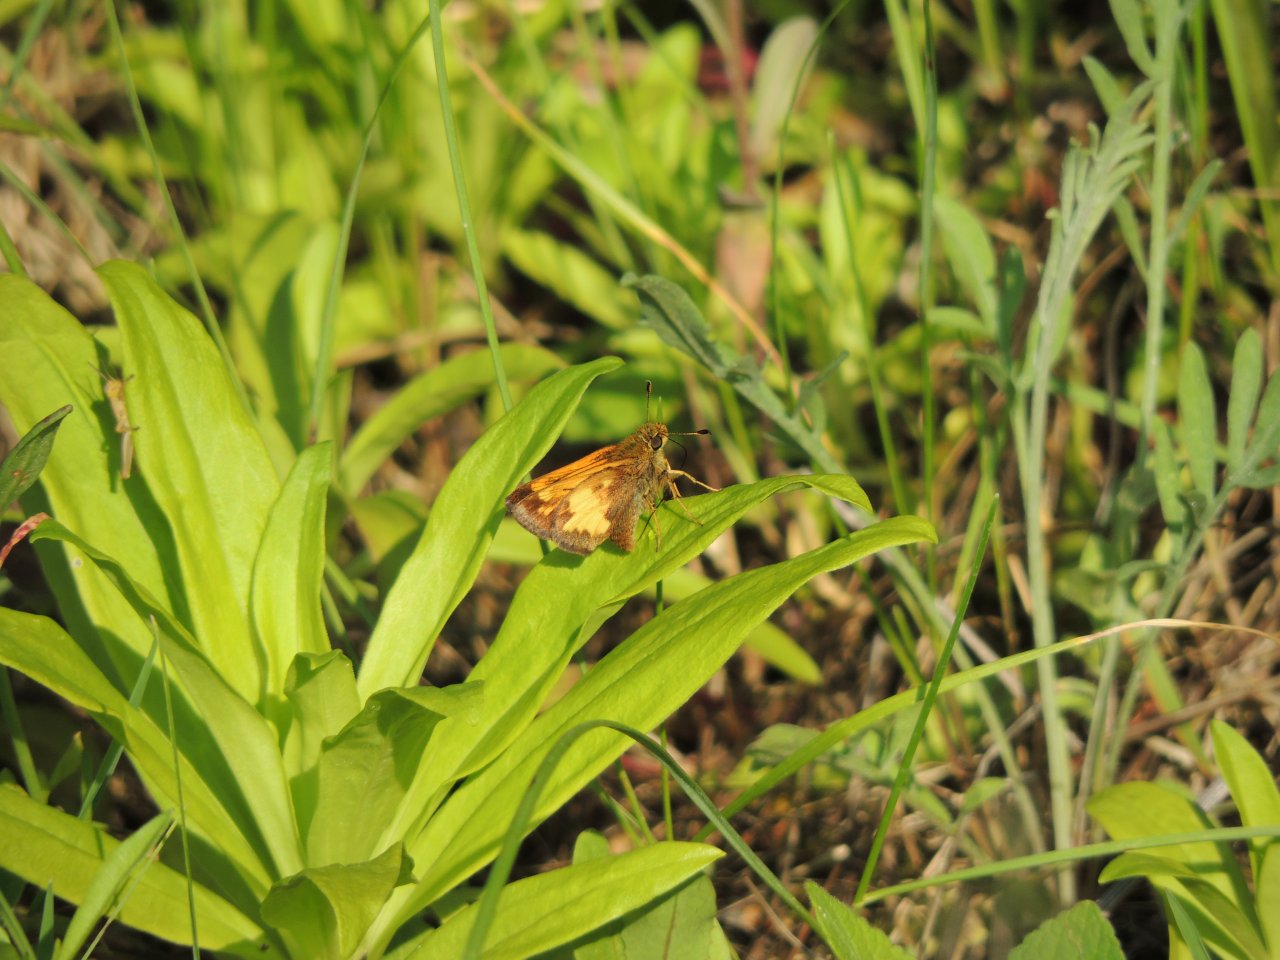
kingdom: Animalia
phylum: Arthropoda
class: Insecta
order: Lepidoptera
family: Hesperiidae
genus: Lon
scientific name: Lon hobomok
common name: Hobomok Skipper
